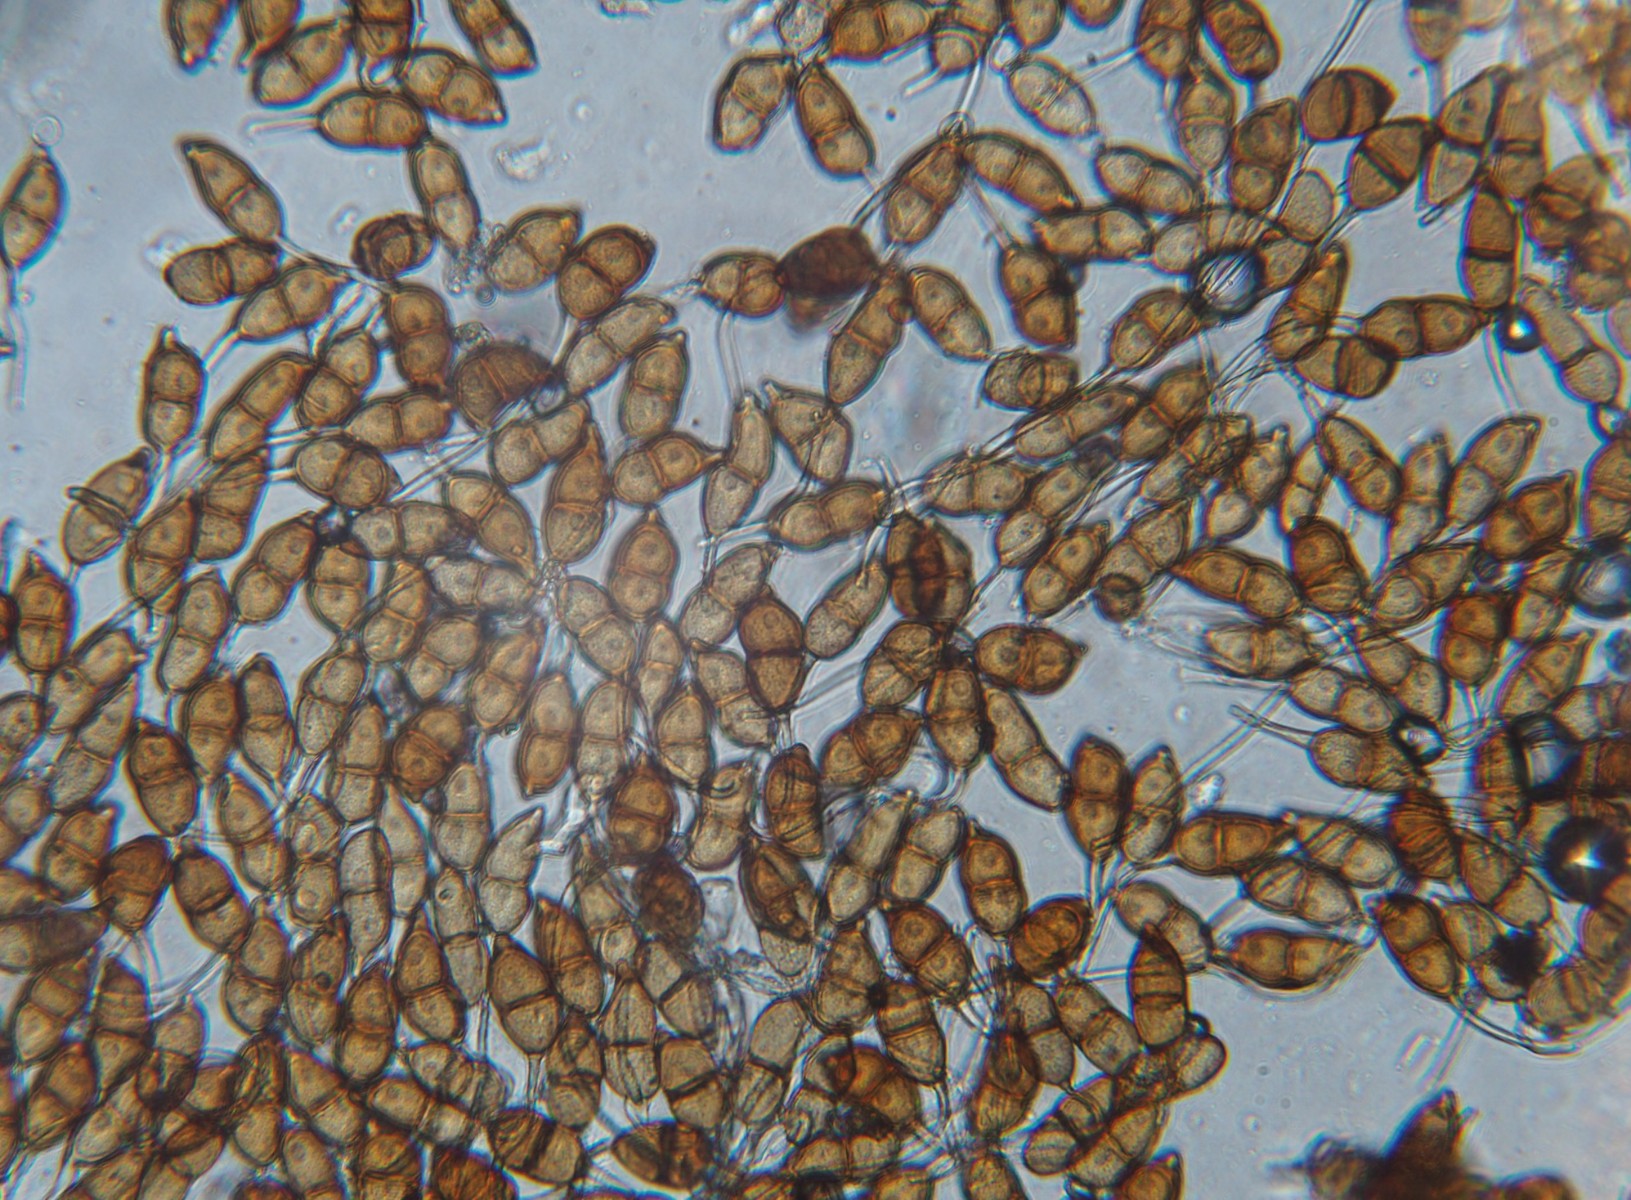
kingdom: Fungi
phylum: Basidiomycota
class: Pucciniomycetes
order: Pucciniales
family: Pucciniaceae
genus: Puccinia
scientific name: Puccinia glechomatis
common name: Ground ivy rust
